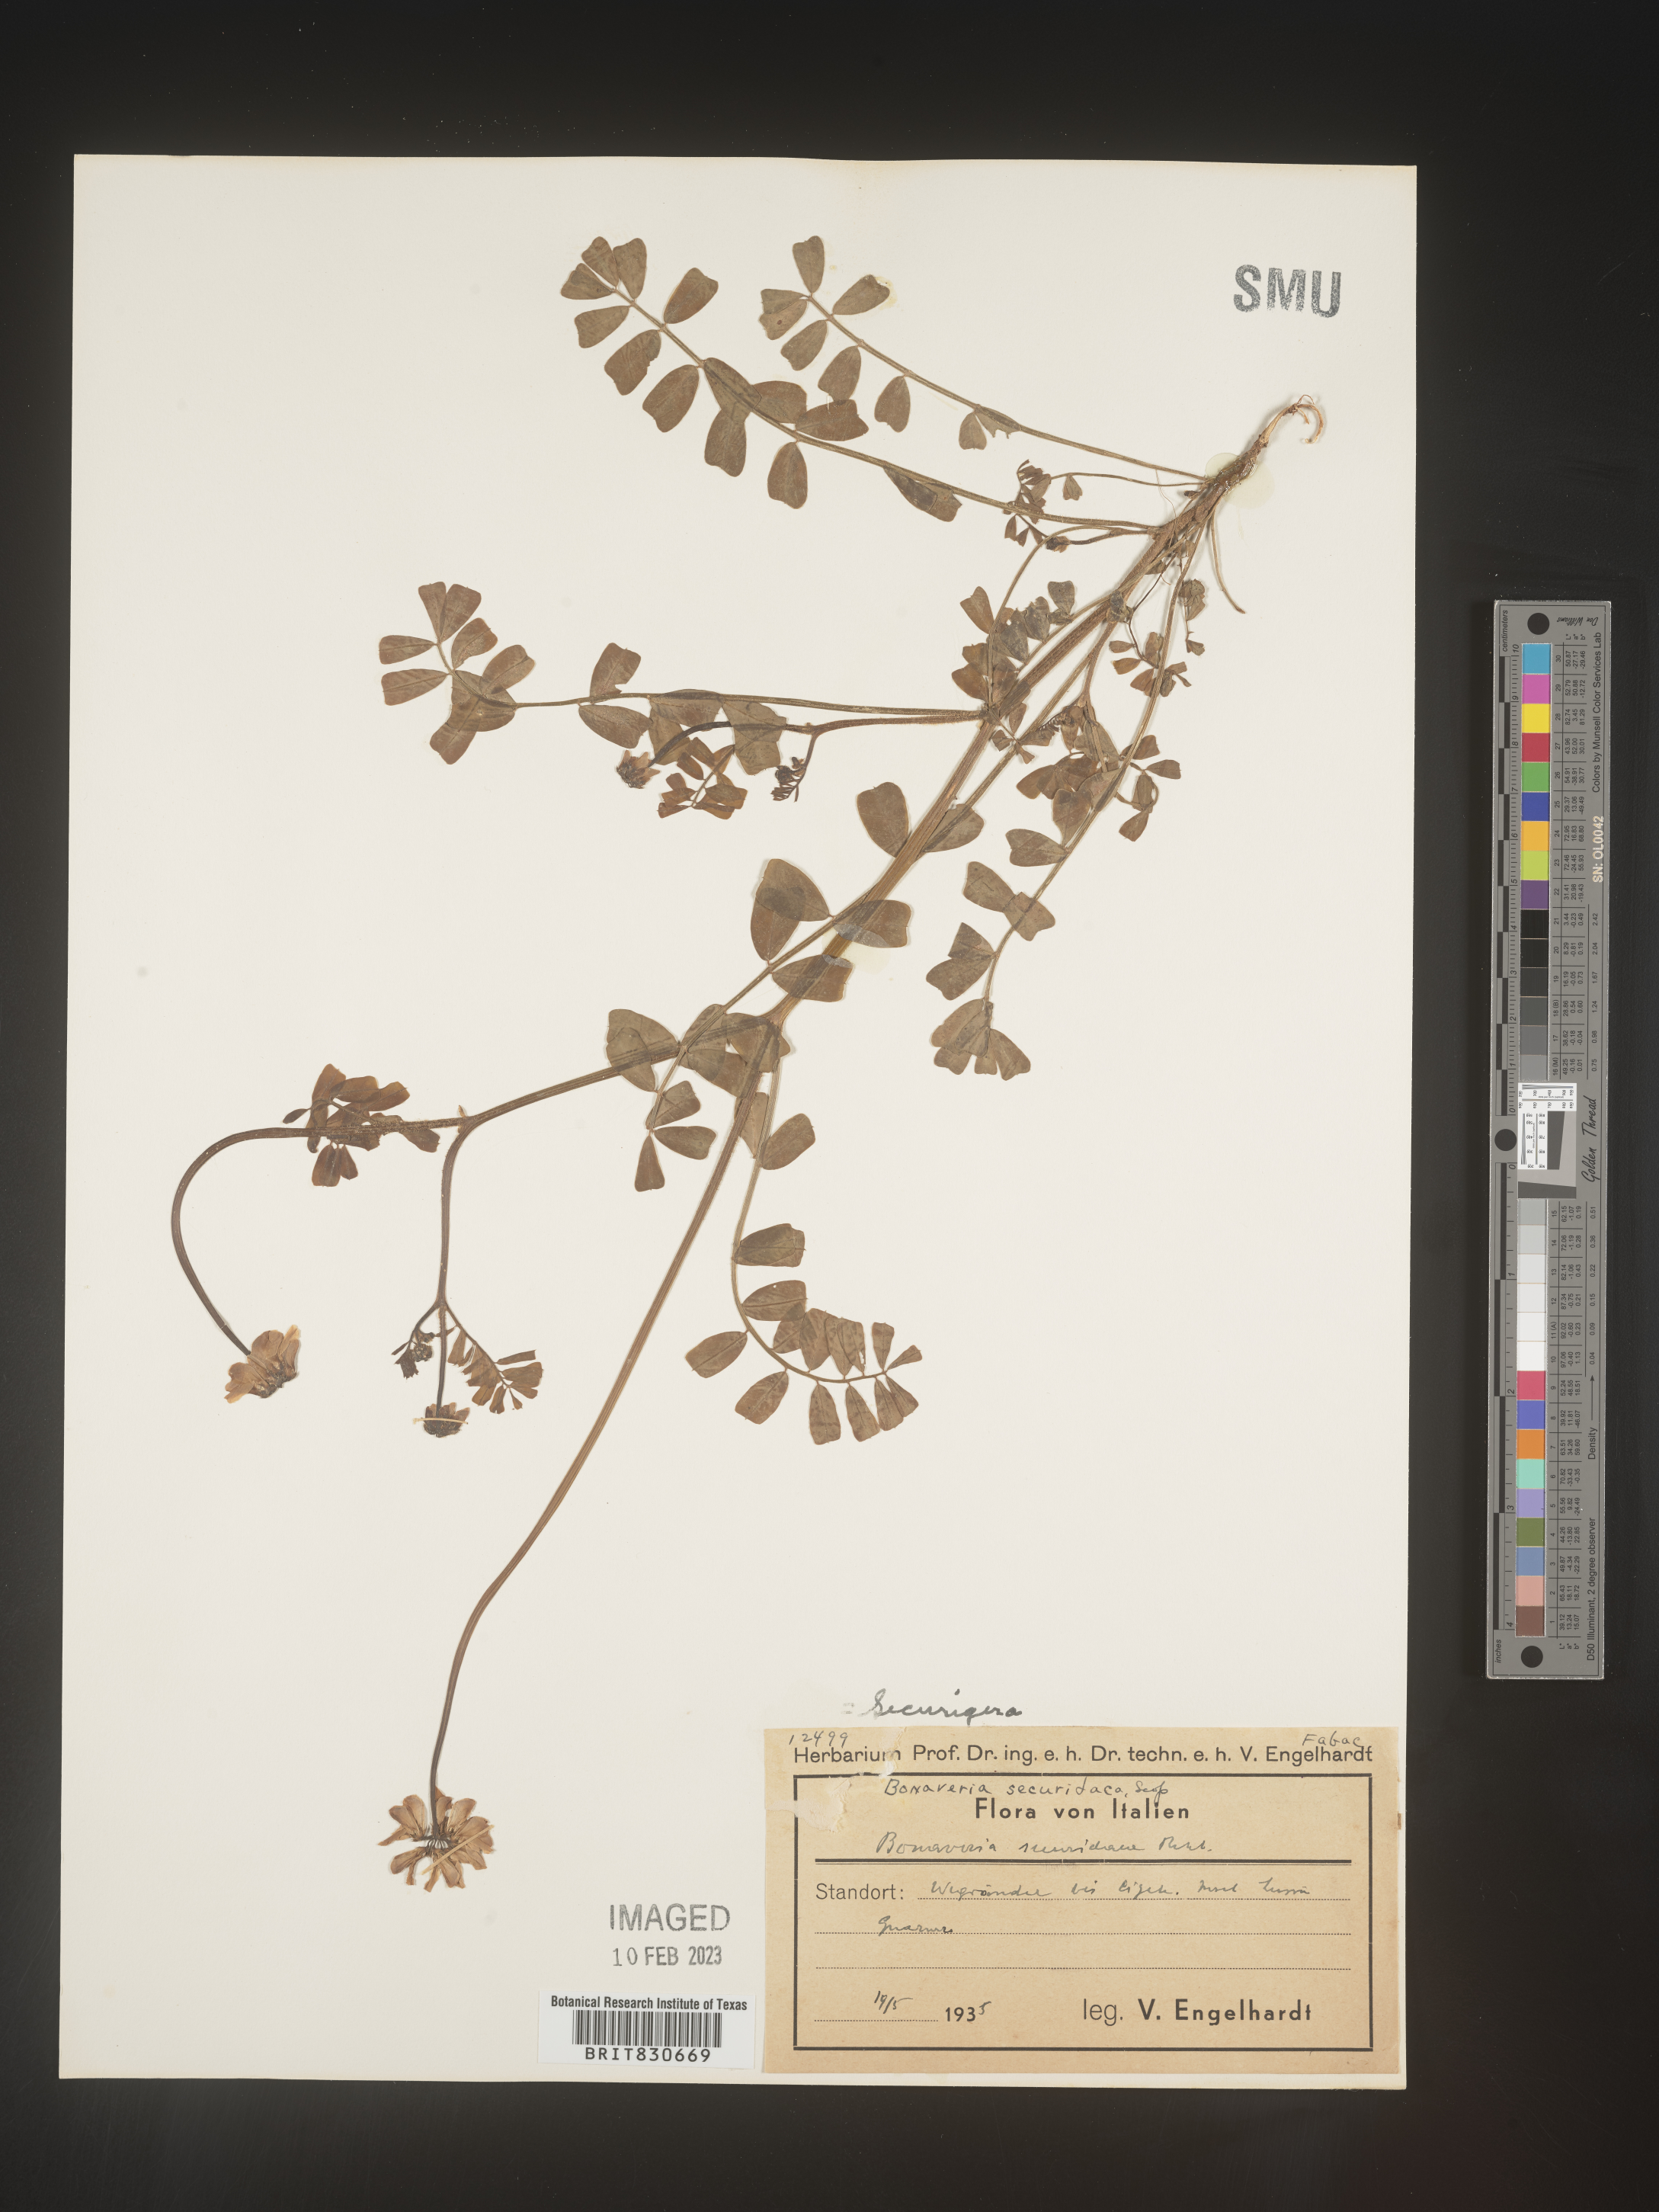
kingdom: Animalia
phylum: Arthropoda
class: Insecta
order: Orthoptera
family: Romaleidae
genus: Securigera
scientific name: Securigera
